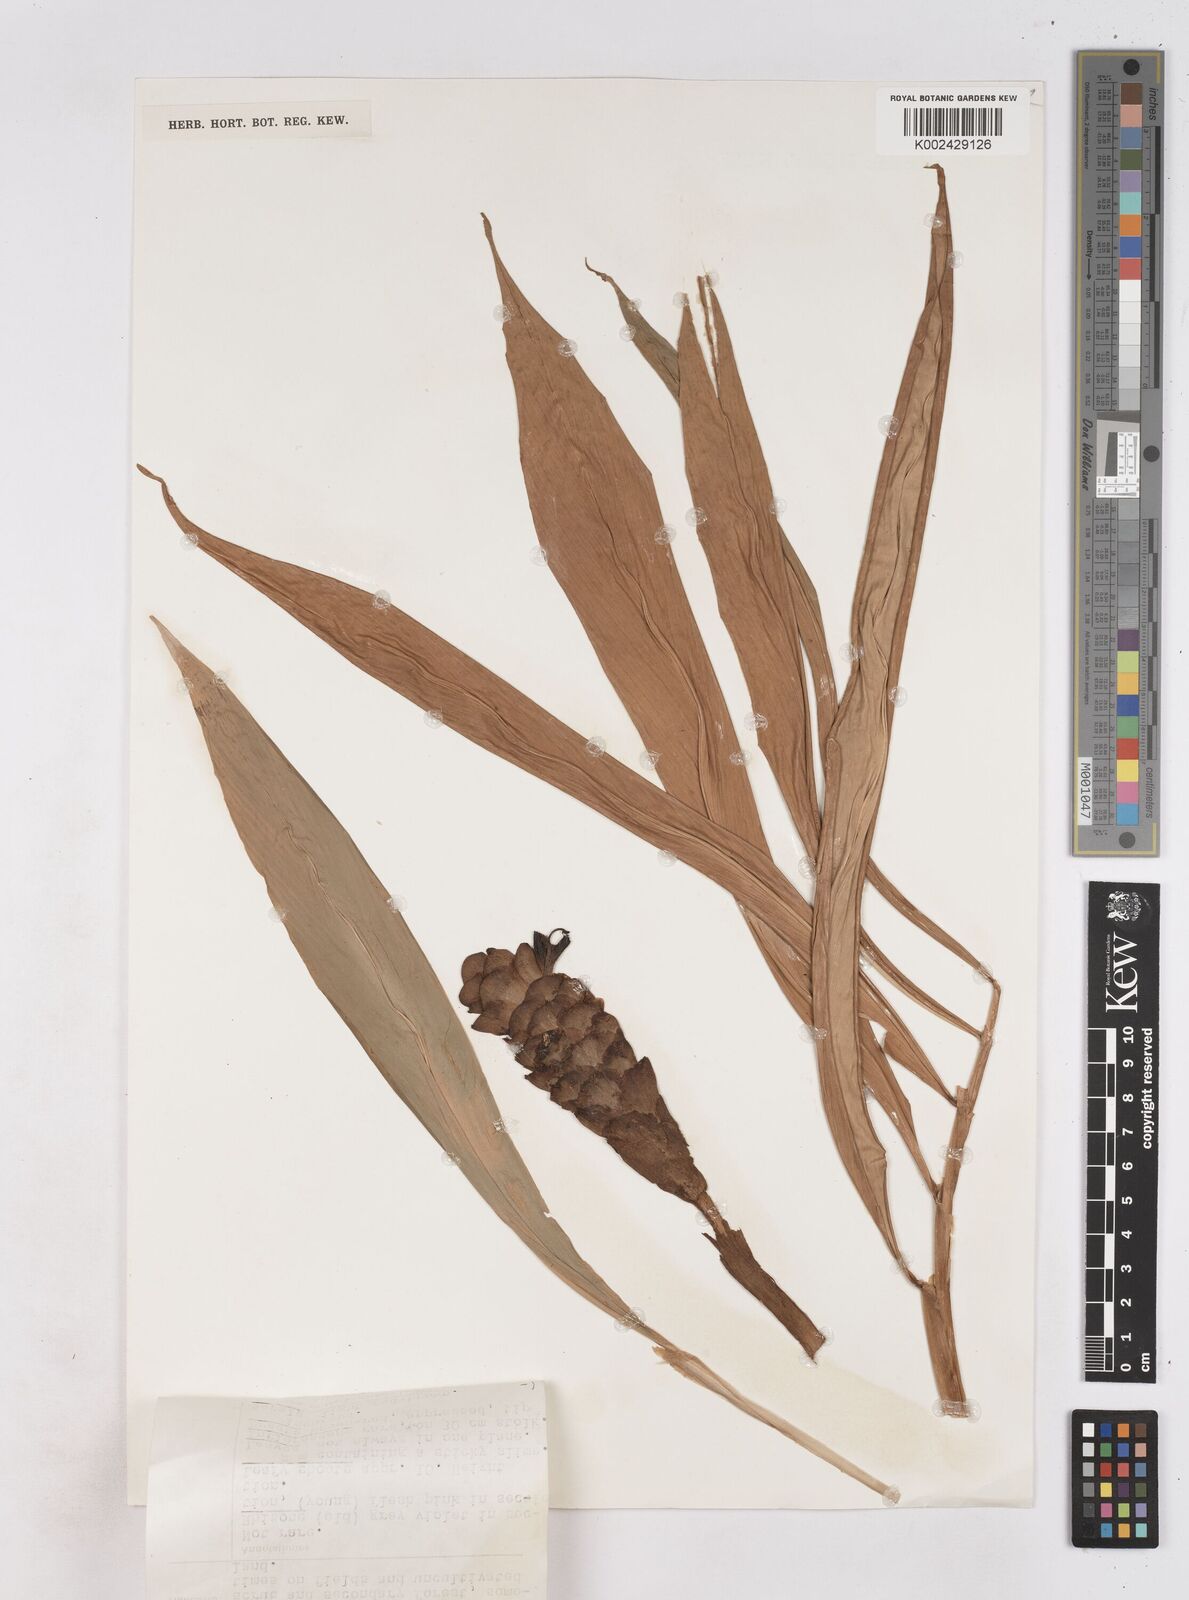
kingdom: Plantae
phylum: Tracheophyta
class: Liliopsida
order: Zingiberales
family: Zingiberaceae
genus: Zingiber
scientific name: Zingiber ottensii
